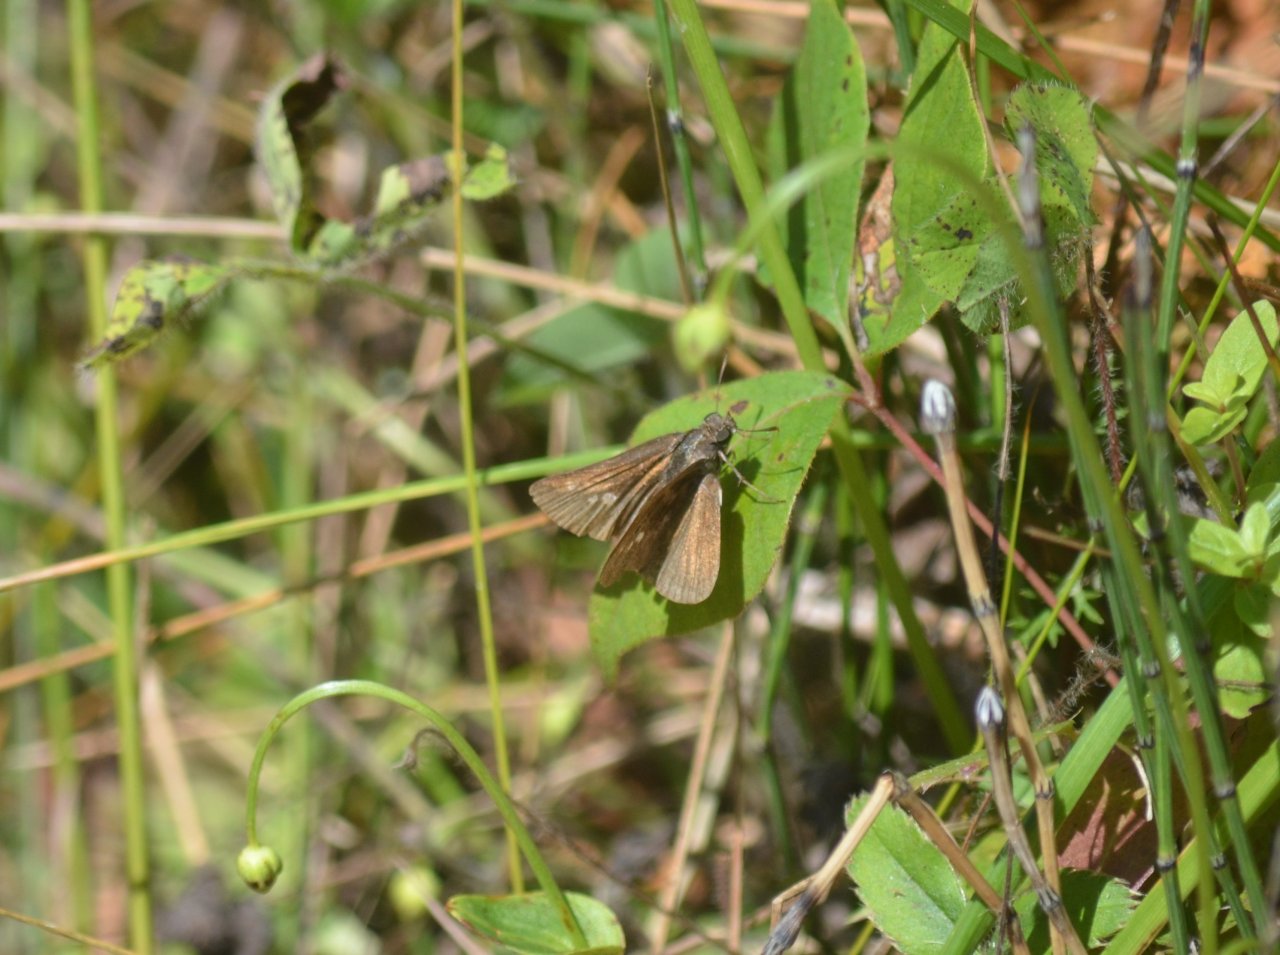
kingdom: Animalia
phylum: Arthropoda
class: Insecta
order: Lepidoptera
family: Hesperiidae
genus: Polites
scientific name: Polites themistocles
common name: Tawny-edged Skipper
